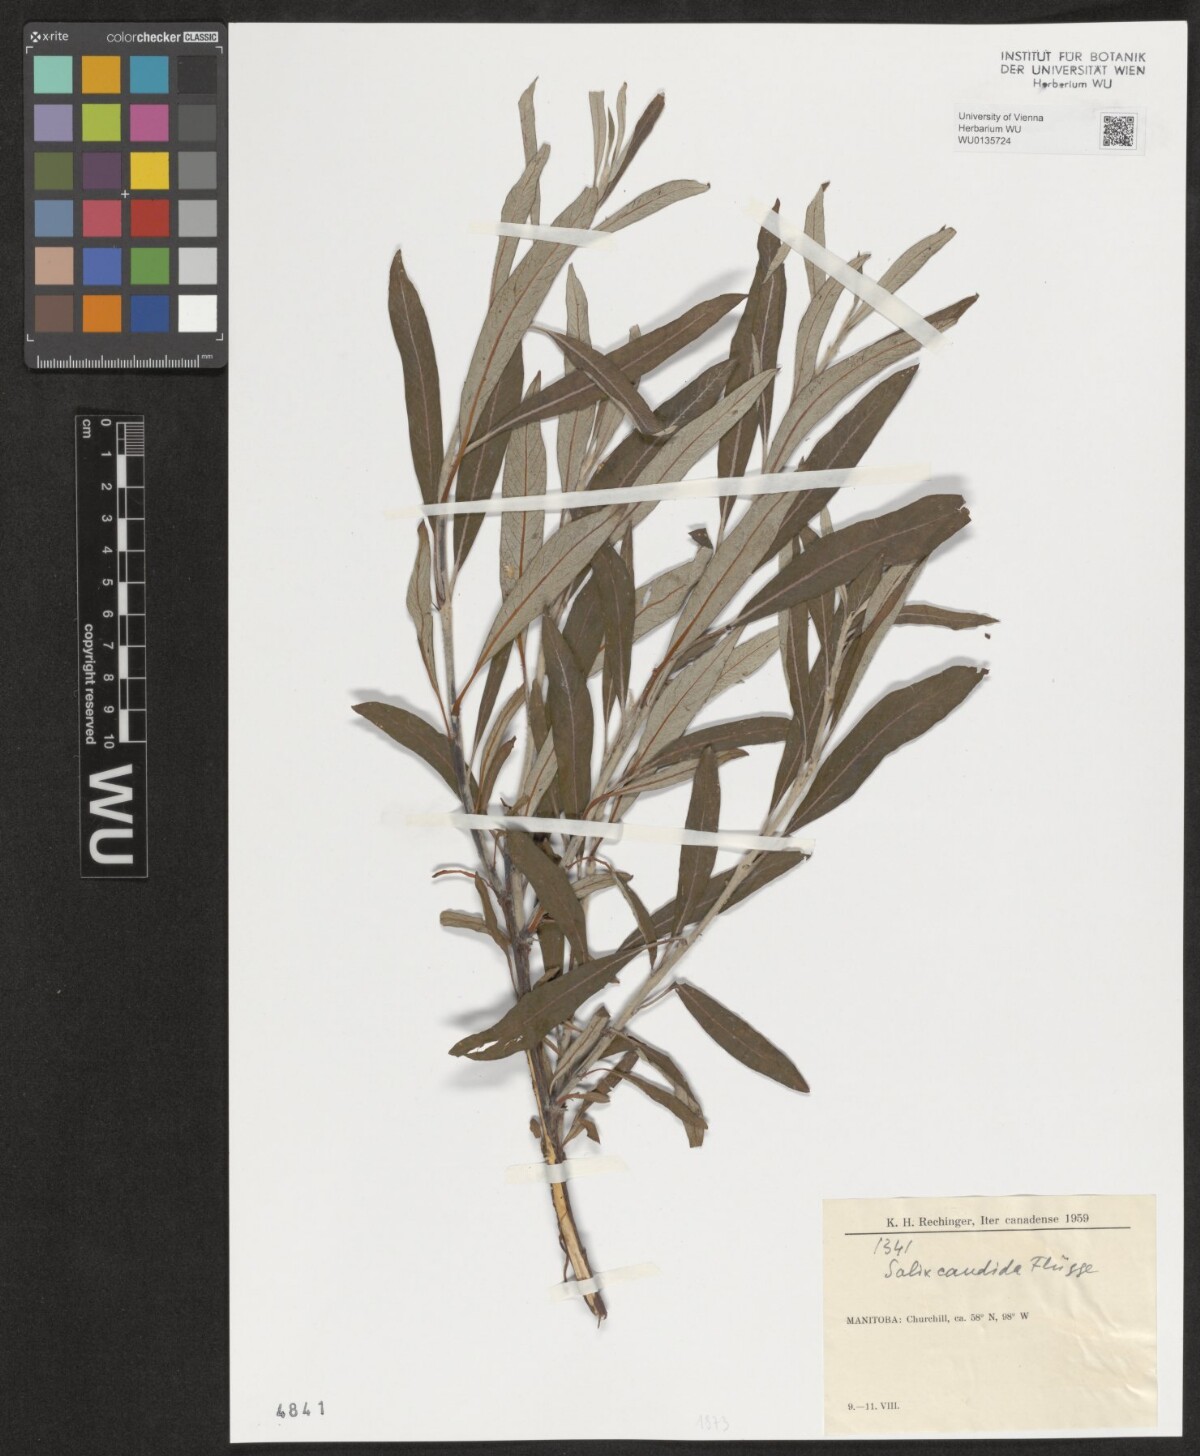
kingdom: Plantae
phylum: Tracheophyta
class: Magnoliopsida
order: Malpighiales
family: Salicaceae
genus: Salix
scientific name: Salix candida
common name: Hoary willow
